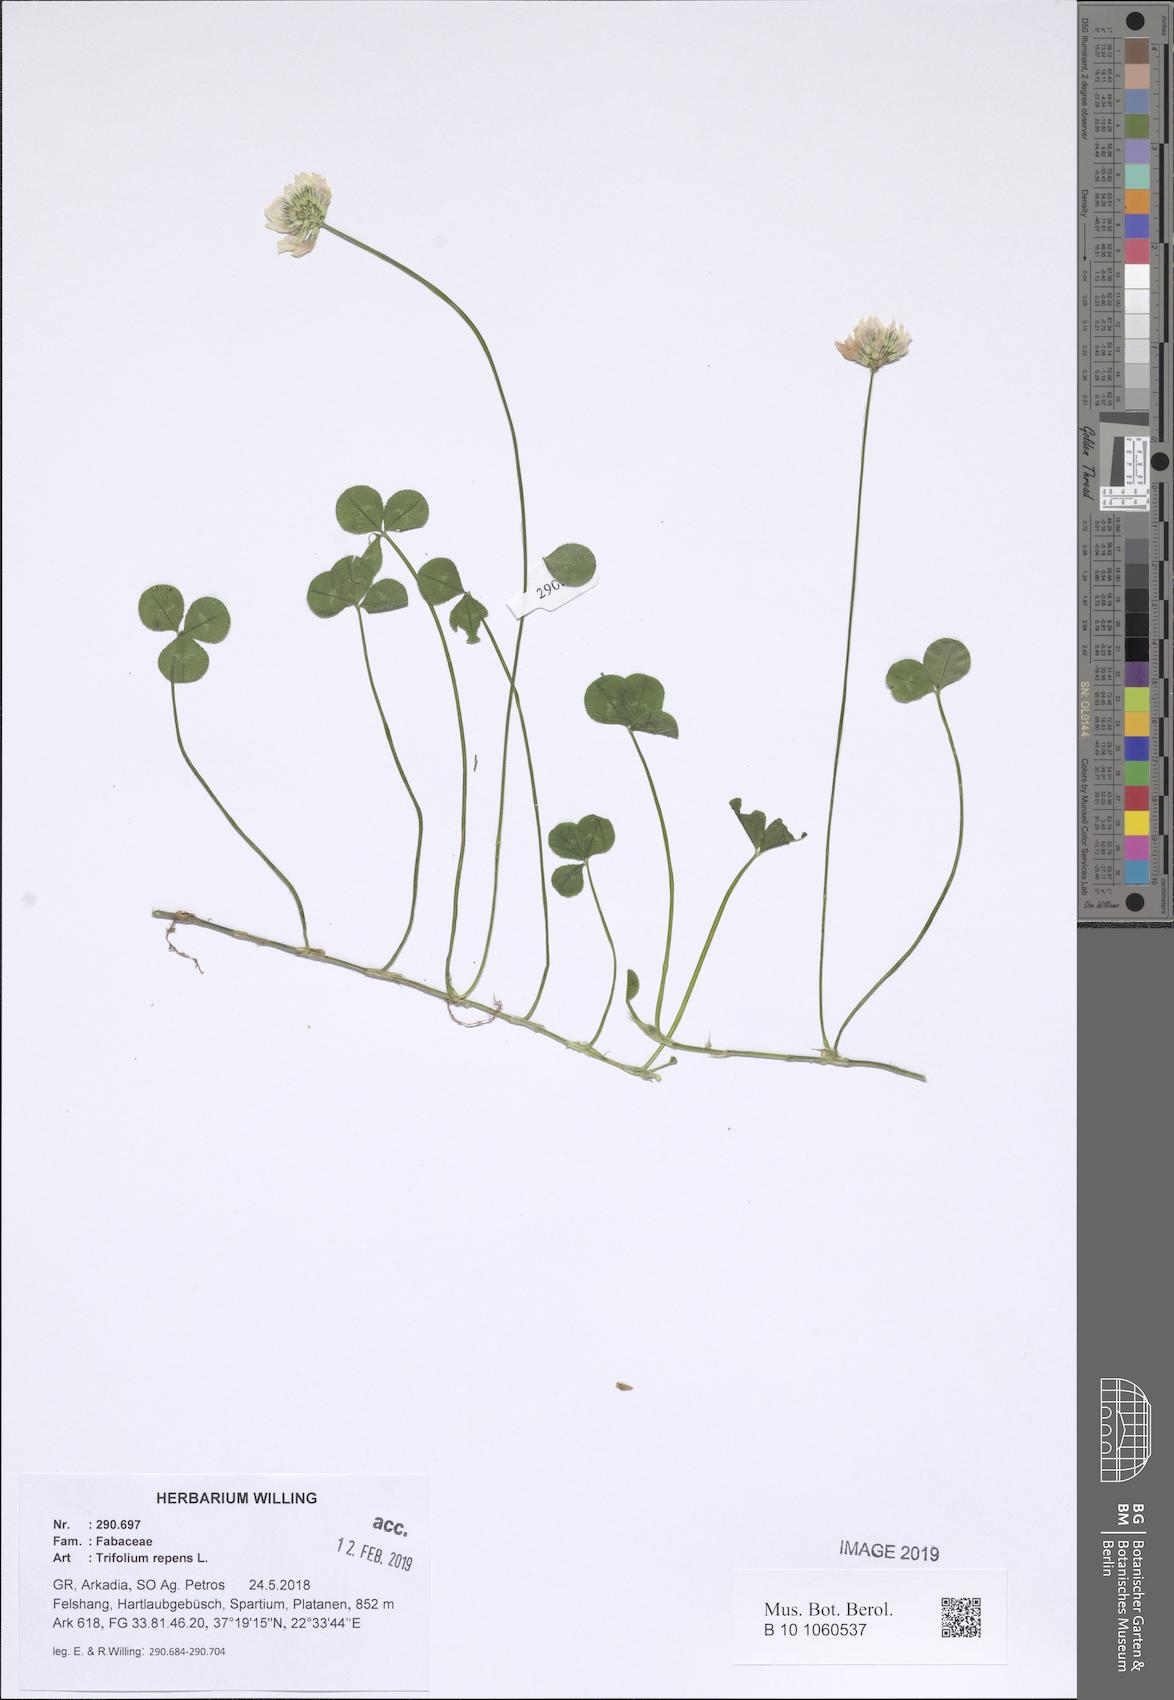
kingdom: Plantae
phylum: Tracheophyta
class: Magnoliopsida
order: Fabales
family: Fabaceae
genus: Trifolium
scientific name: Trifolium repens
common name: White clover
